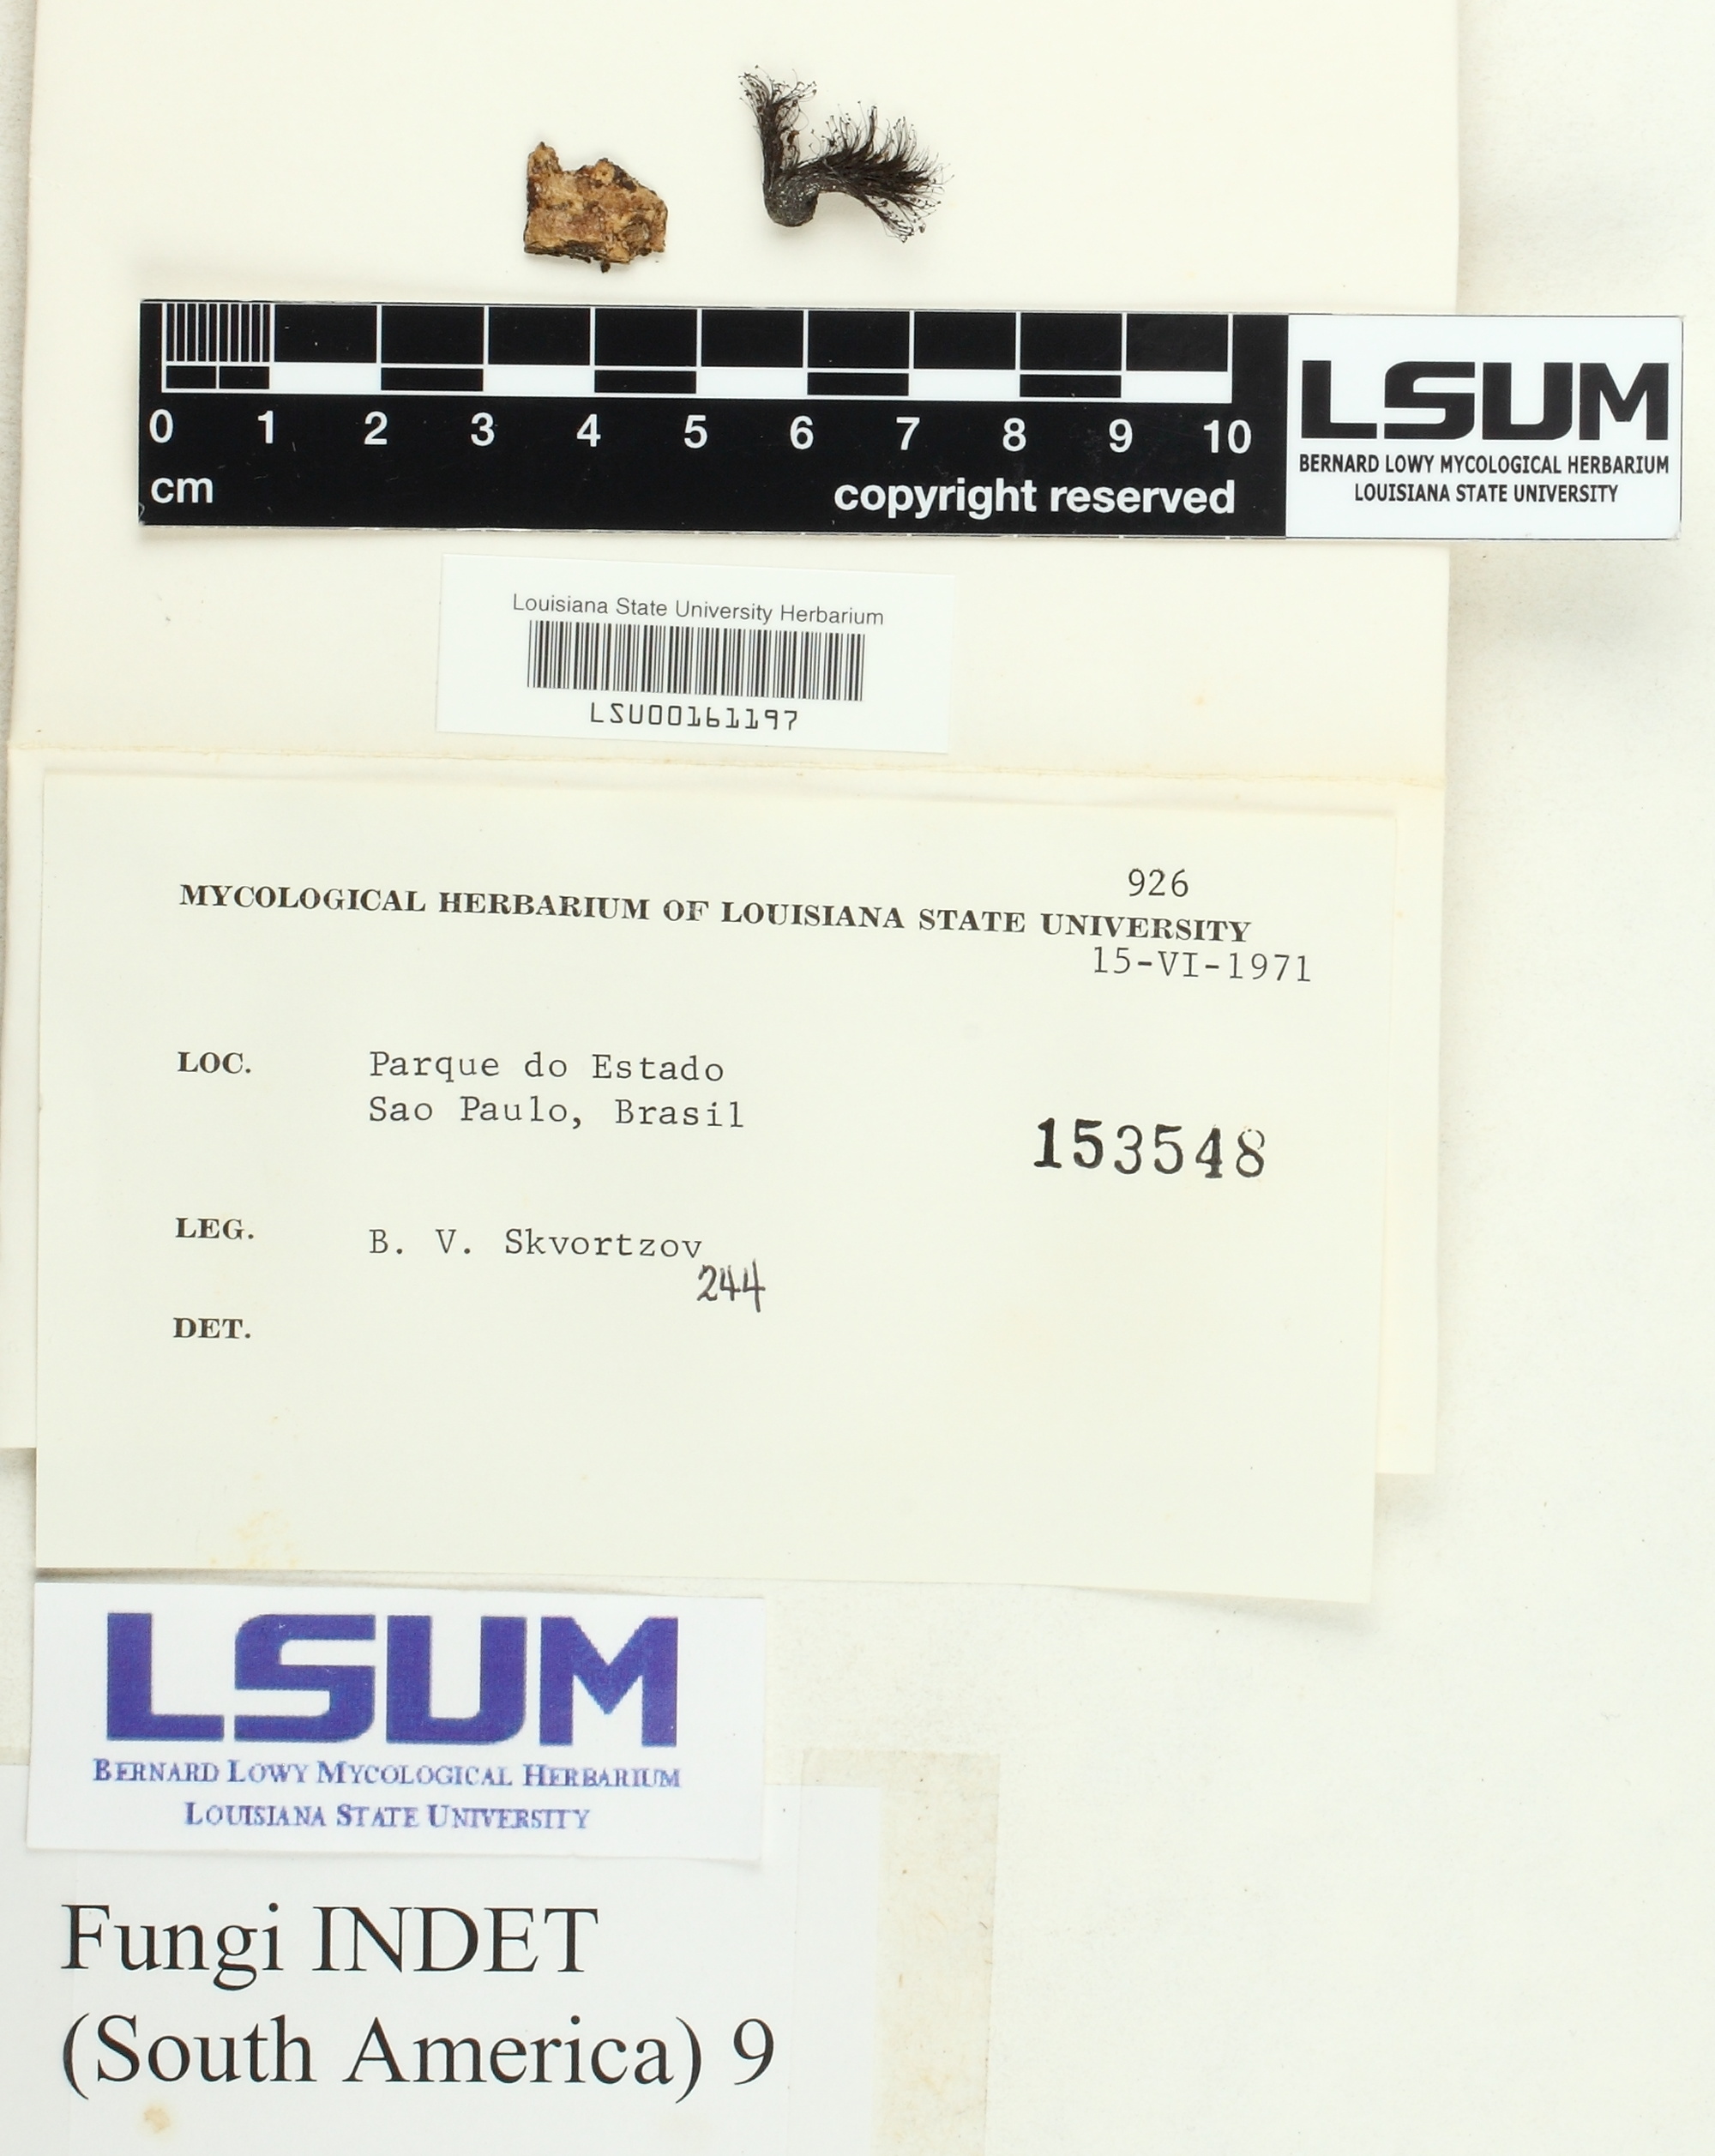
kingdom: Fungi
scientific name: Fungi
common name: Fungi
